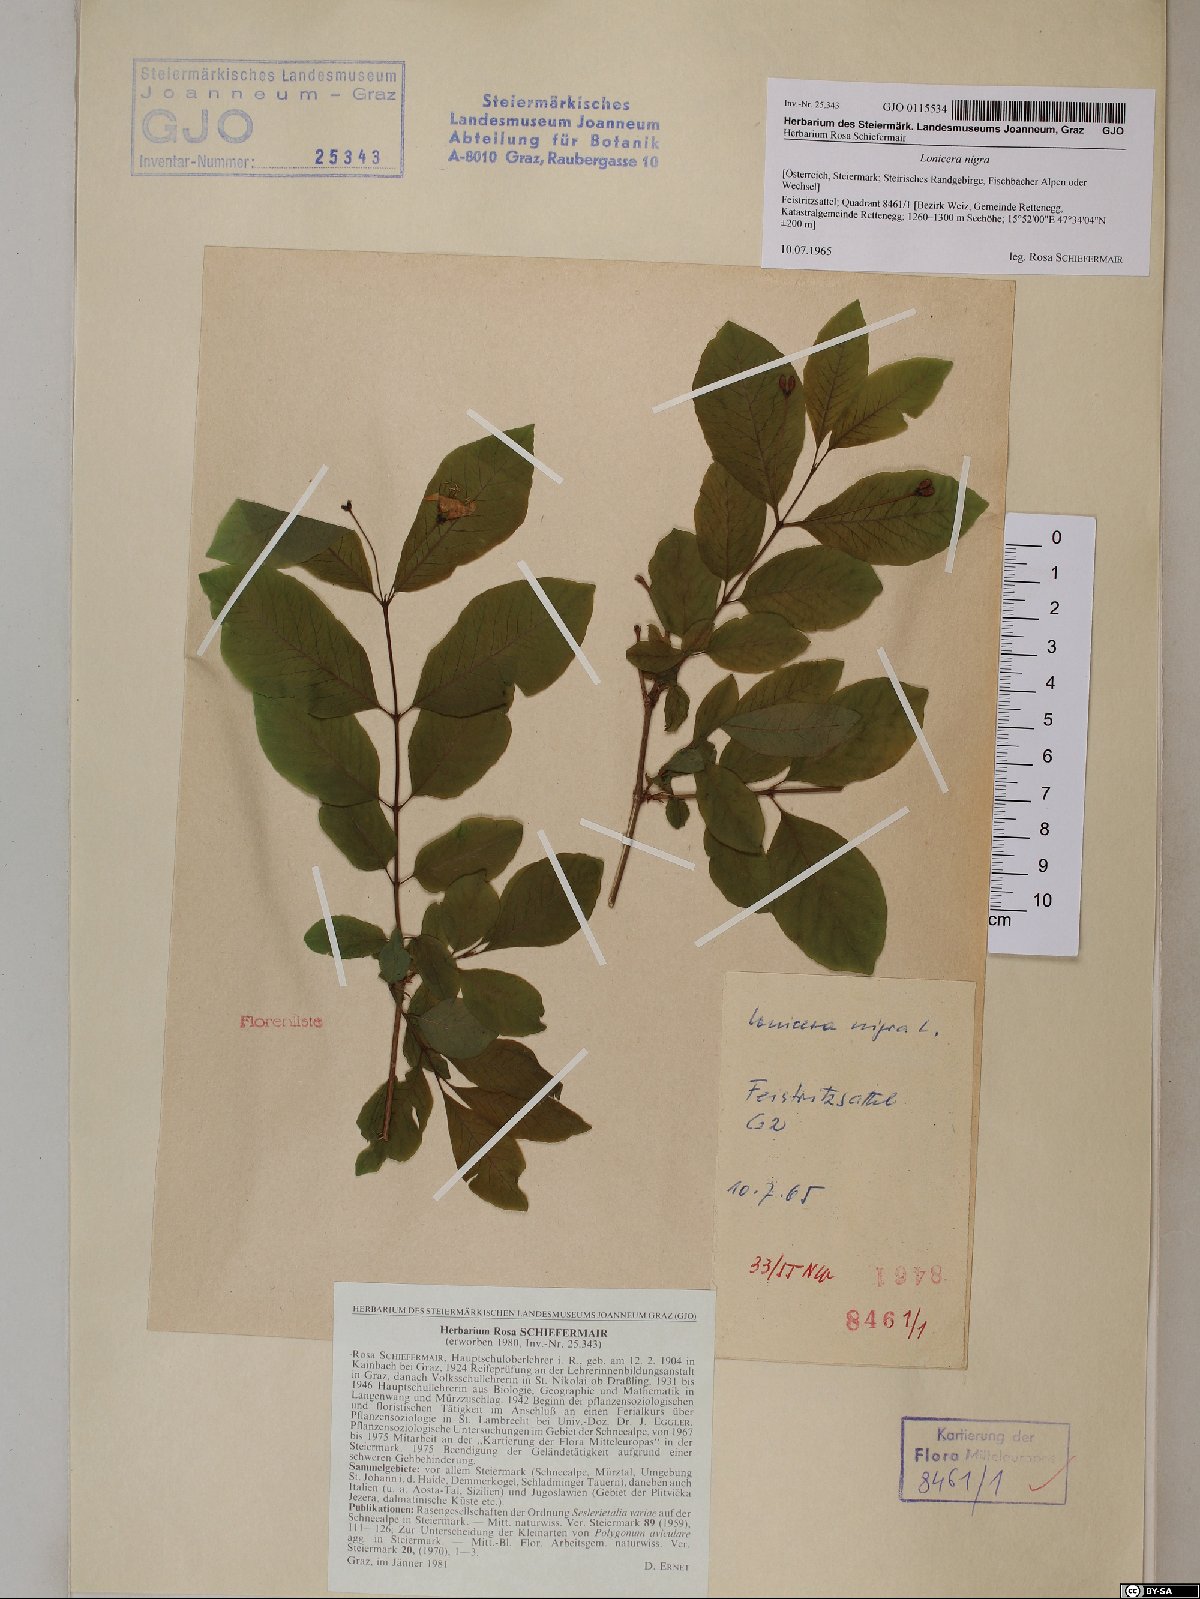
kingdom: Plantae
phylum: Tracheophyta
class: Magnoliopsida
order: Dipsacales
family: Caprifoliaceae
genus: Lonicera
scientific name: Lonicera nigra
